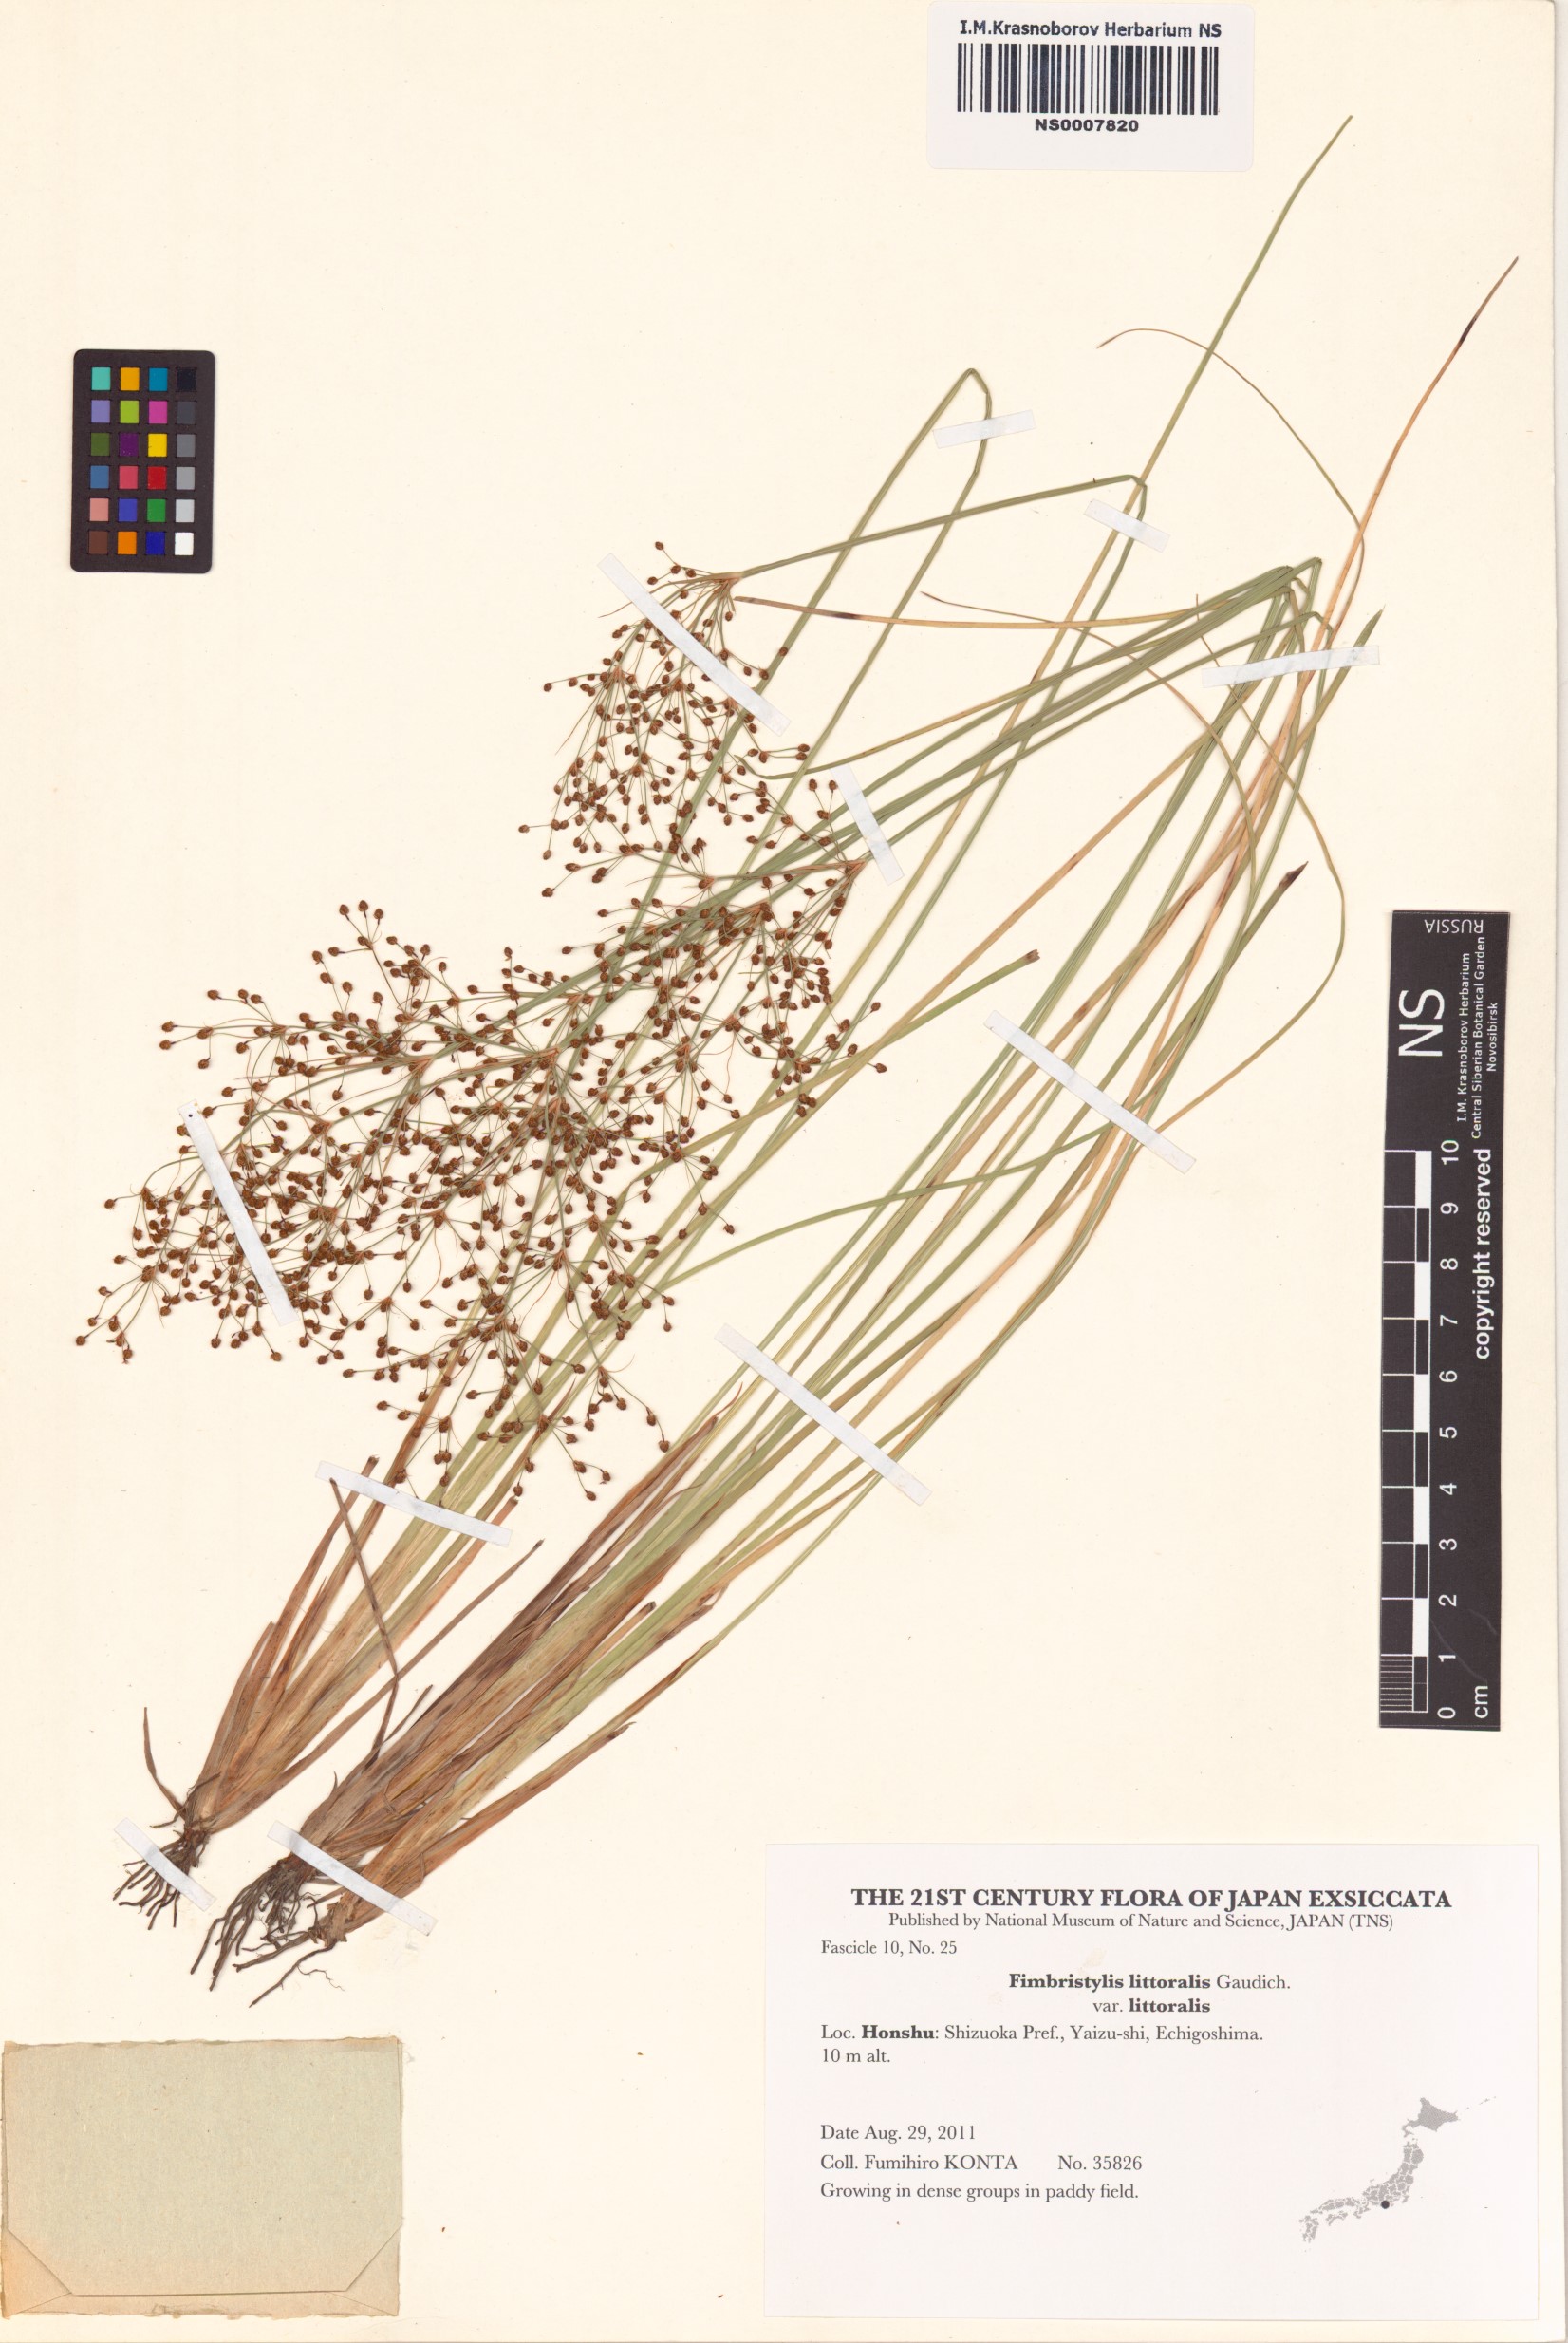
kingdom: Plantae
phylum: Tracheophyta
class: Liliopsida
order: Poales
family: Cyperaceae
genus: Fimbristylis
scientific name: Fimbristylis littoralis
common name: Fimbry
